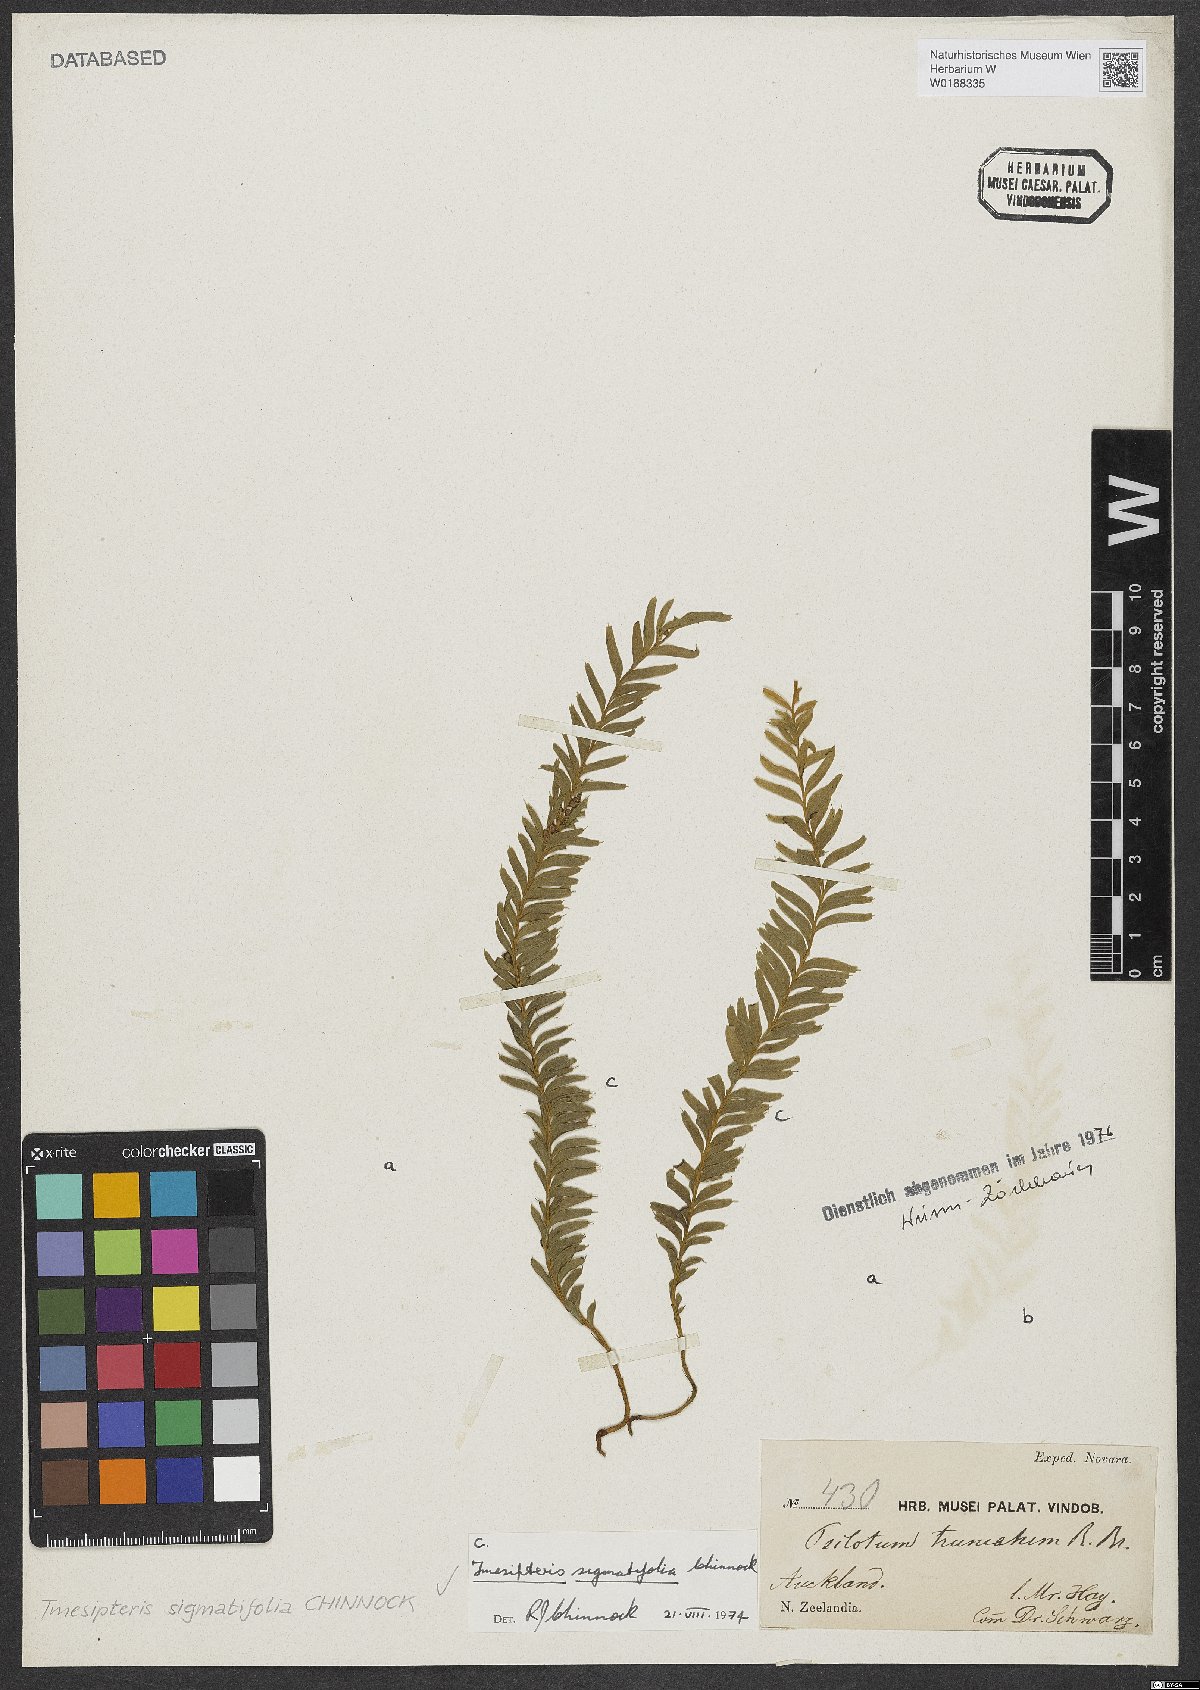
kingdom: Plantae
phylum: Tracheophyta
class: Polypodiopsida
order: Psilotales
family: Psilotaceae
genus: Tmesipteris
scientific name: Tmesipteris sigmatifolia
